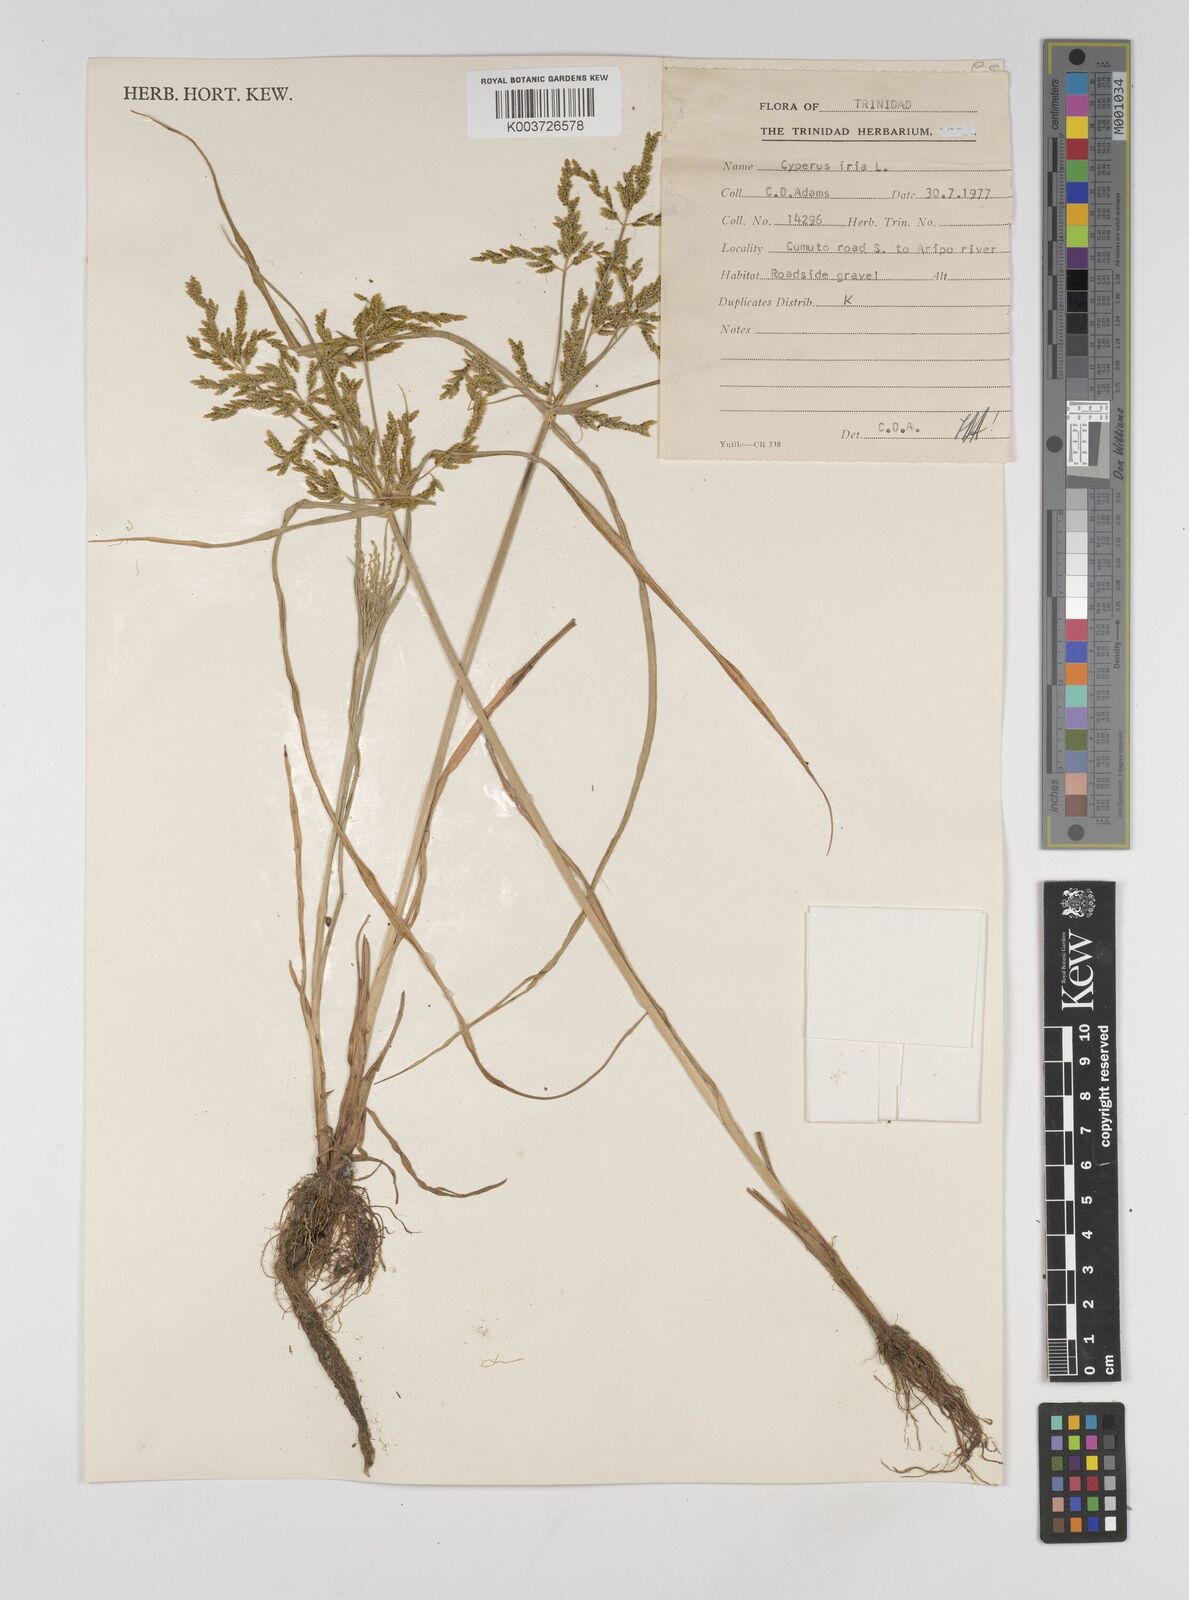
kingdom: Plantae
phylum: Tracheophyta
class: Liliopsida
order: Poales
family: Cyperaceae
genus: Cyperus
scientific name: Cyperus iria
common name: Ricefield flatsedge
